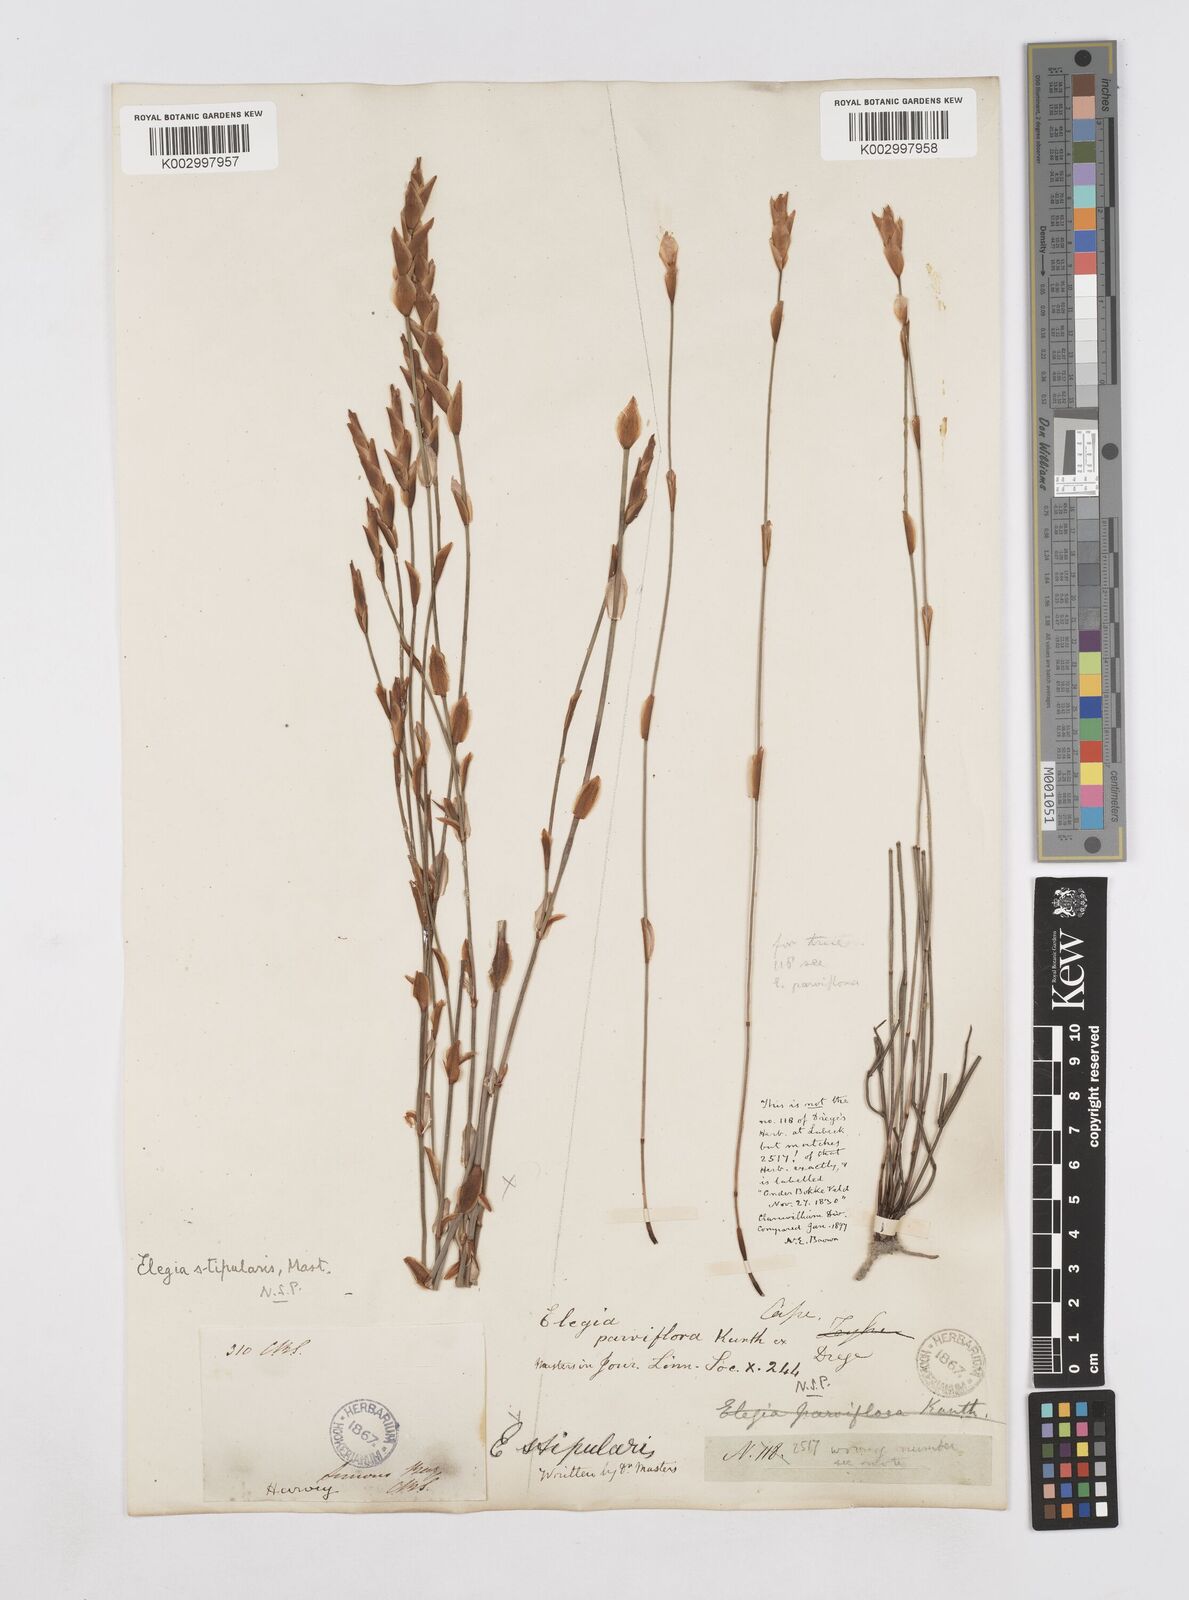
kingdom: Plantae
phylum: Tracheophyta
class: Liliopsida
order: Poales
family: Restionaceae
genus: Elegia
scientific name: Elegia stipularis
